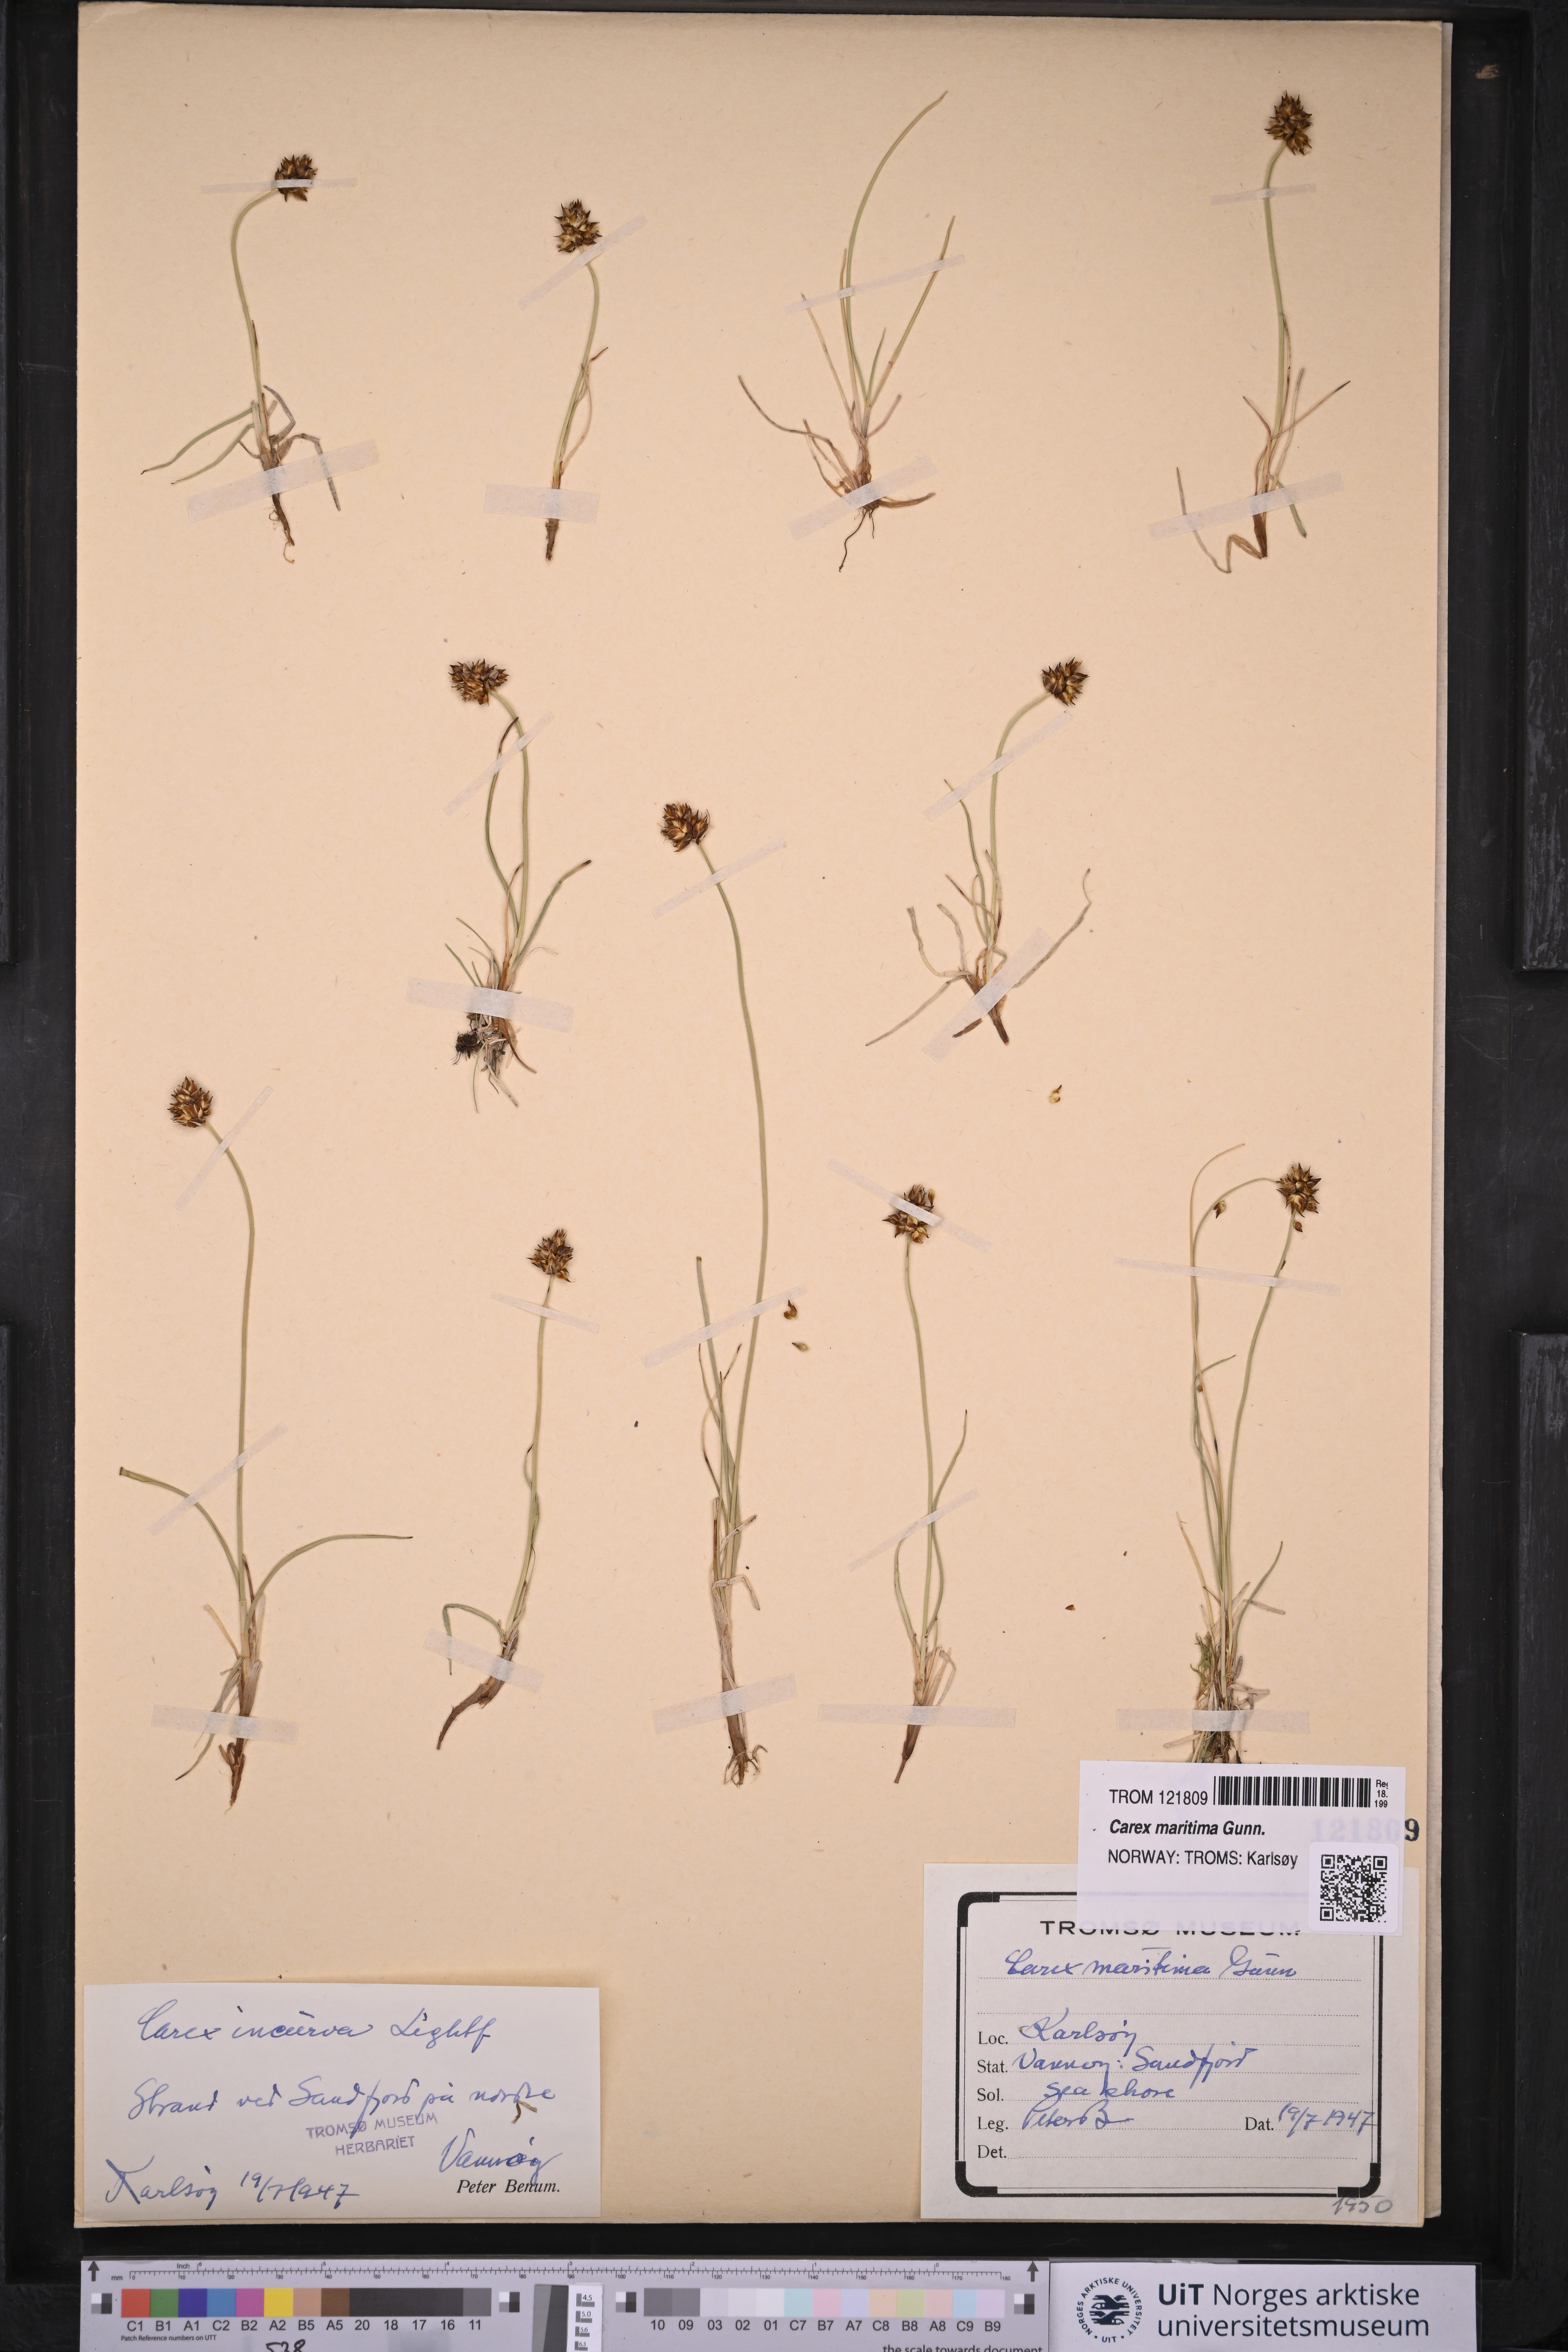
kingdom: Plantae
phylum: Tracheophyta
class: Liliopsida
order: Poales
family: Cyperaceae
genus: Carex
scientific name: Carex maritima
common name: Curved sedge
